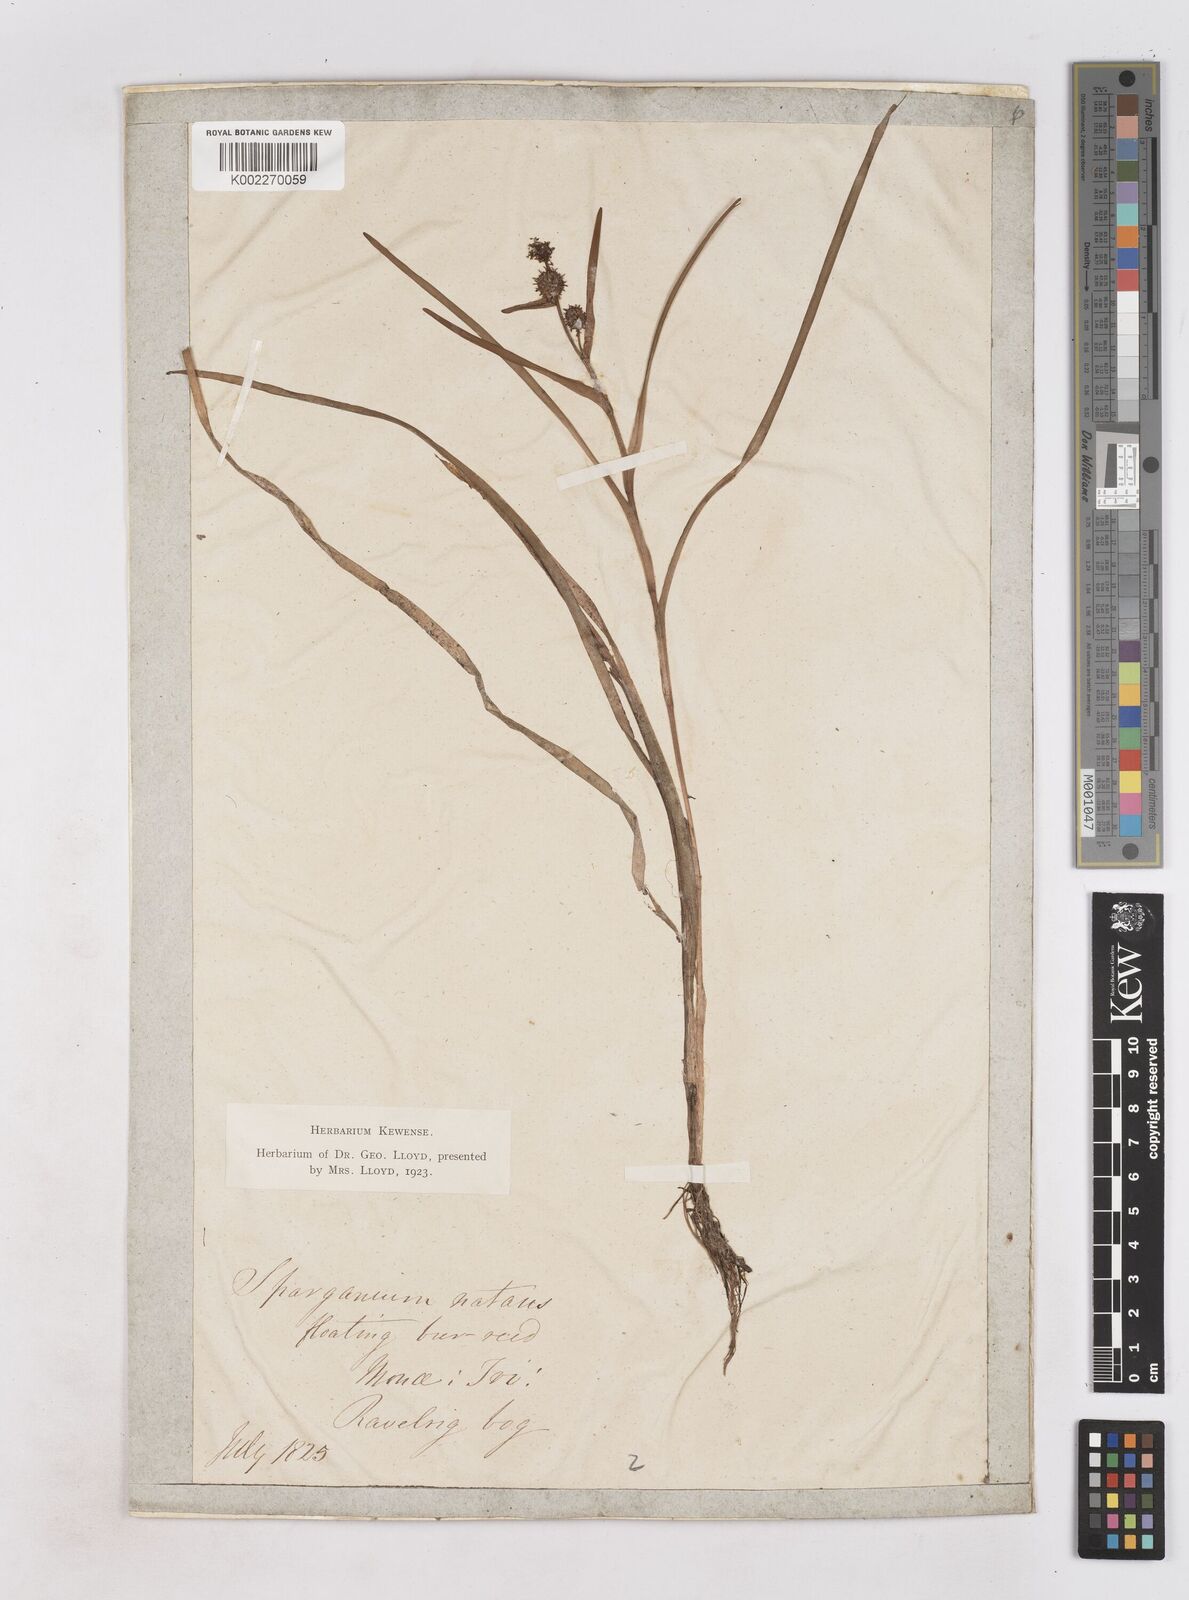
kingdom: Plantae
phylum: Tracheophyta
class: Liliopsida
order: Poales
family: Typhaceae
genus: Sparganium
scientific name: Sparganium natans
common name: Least bur-reed
